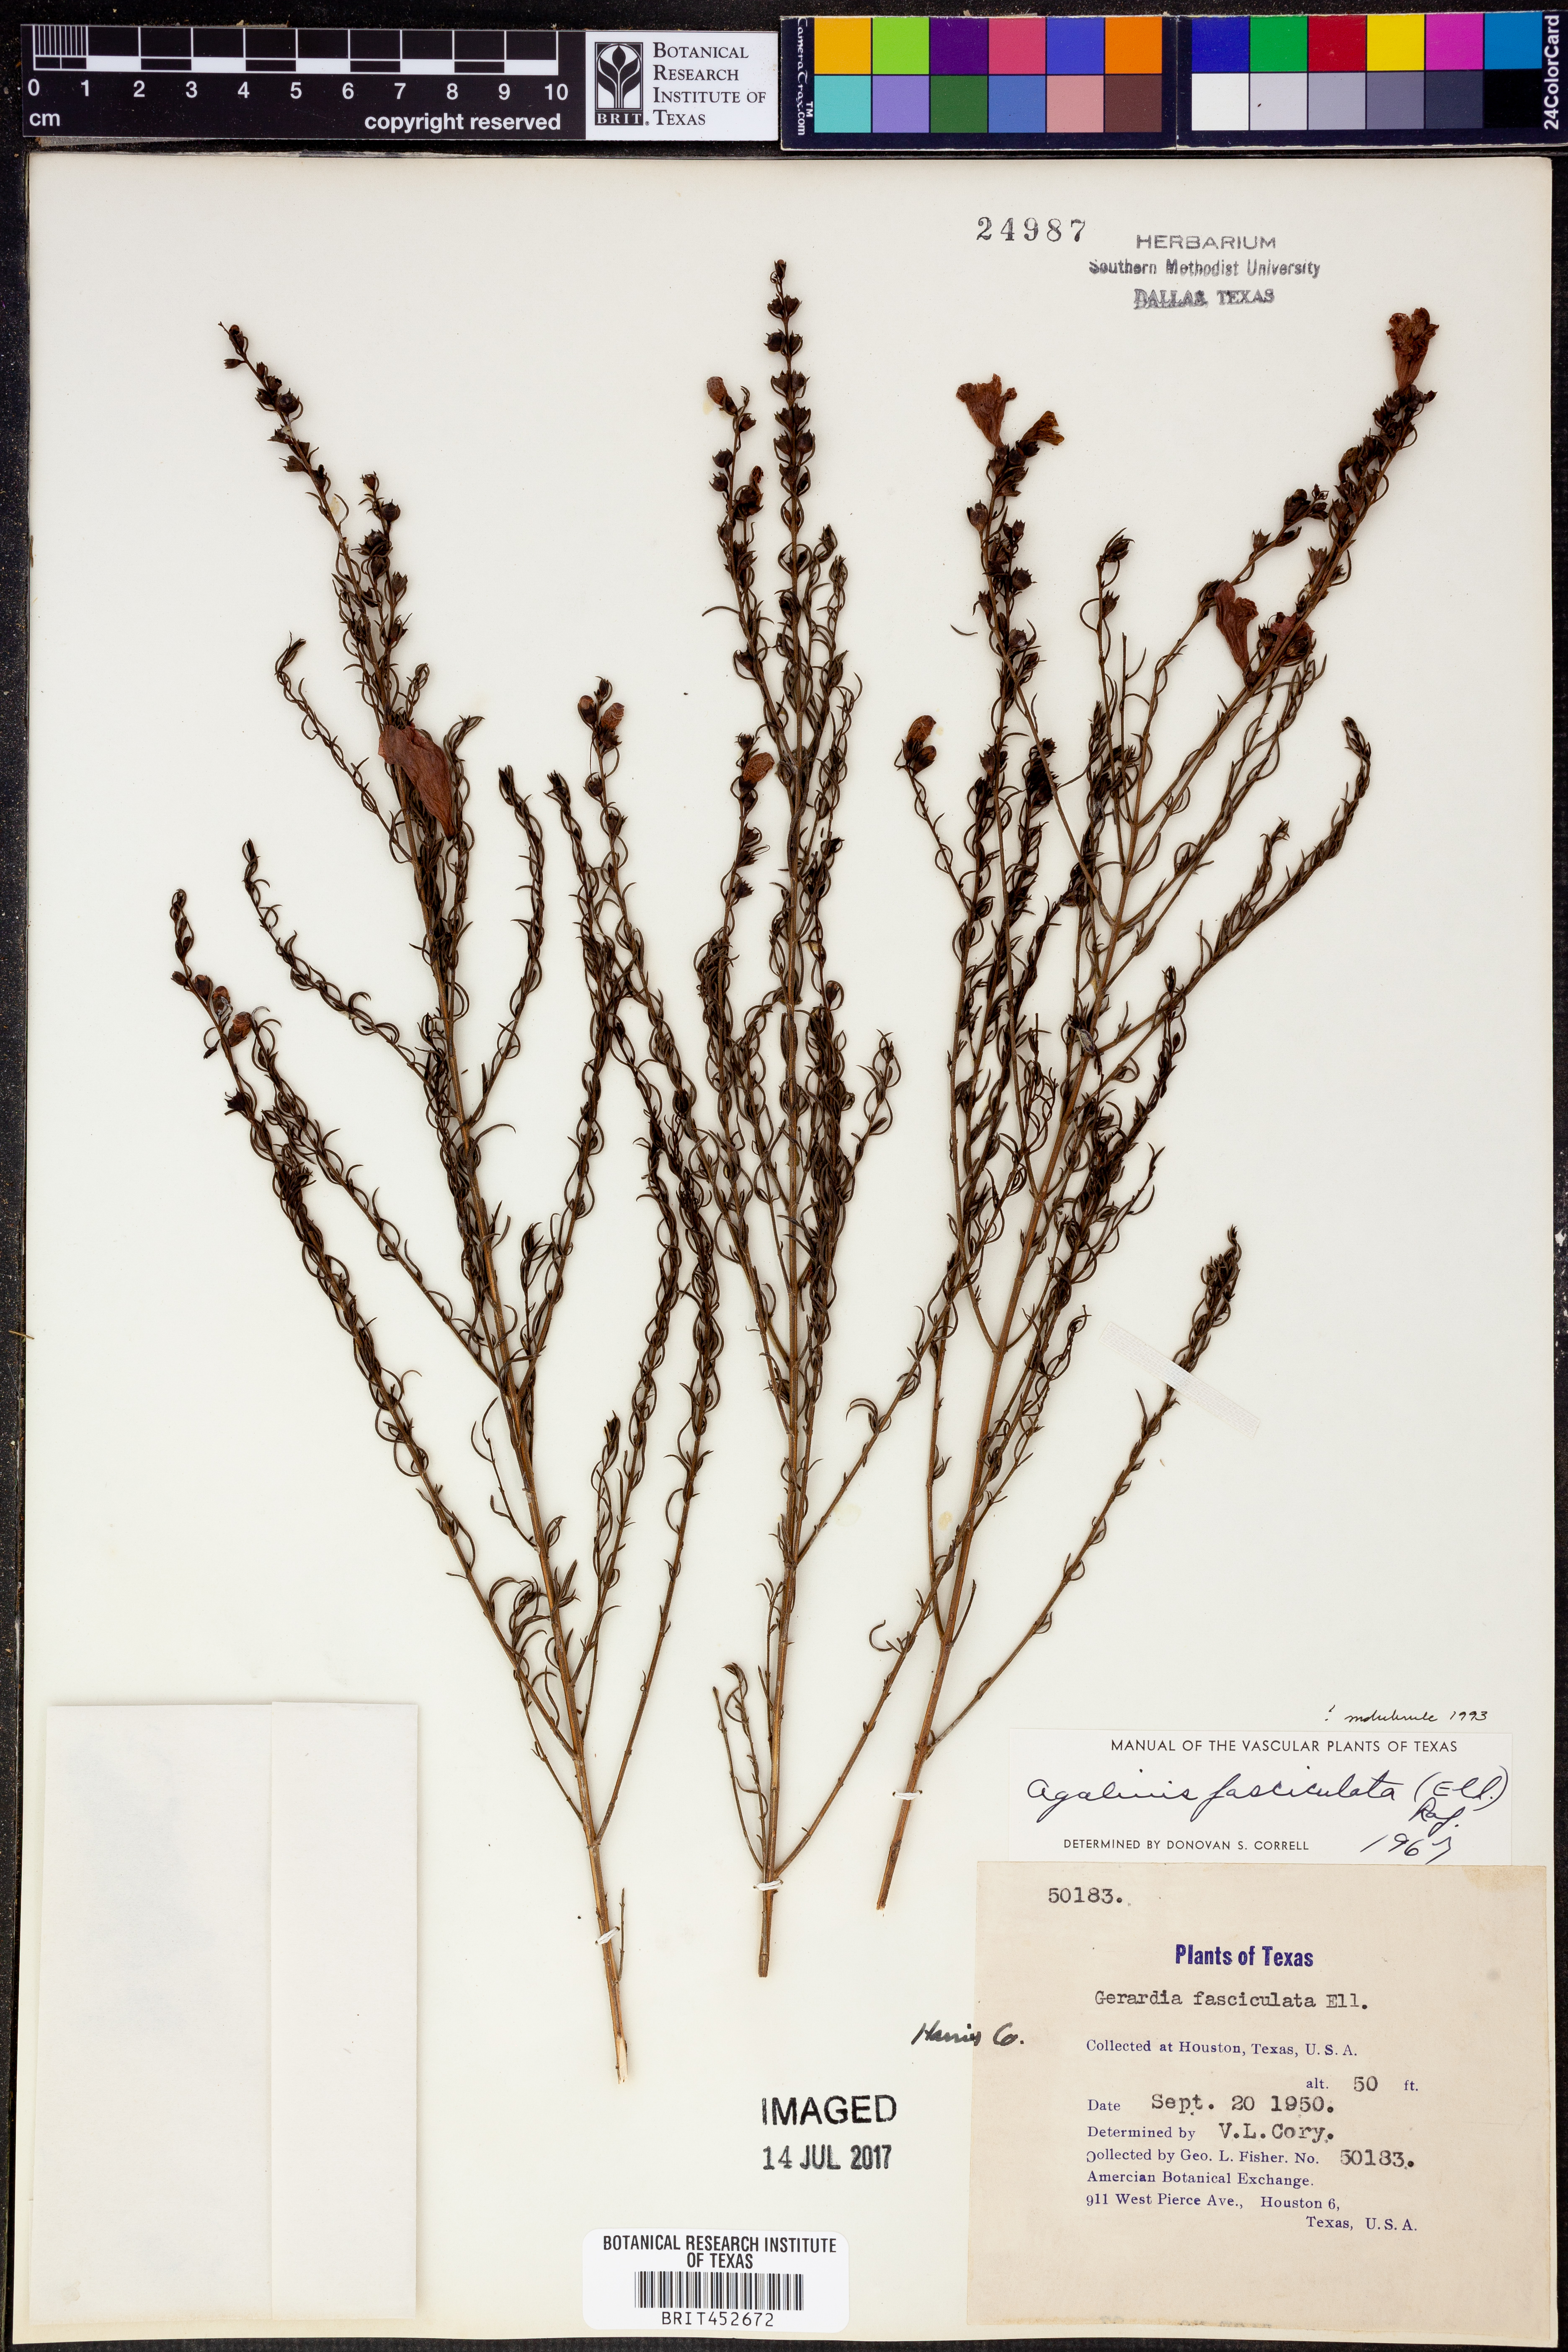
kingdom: Plantae
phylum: Tracheophyta
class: Magnoliopsida
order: Lamiales
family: Orobanchaceae
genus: Agalinis
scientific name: Agalinis fasciculata
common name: Beach false foxglove
